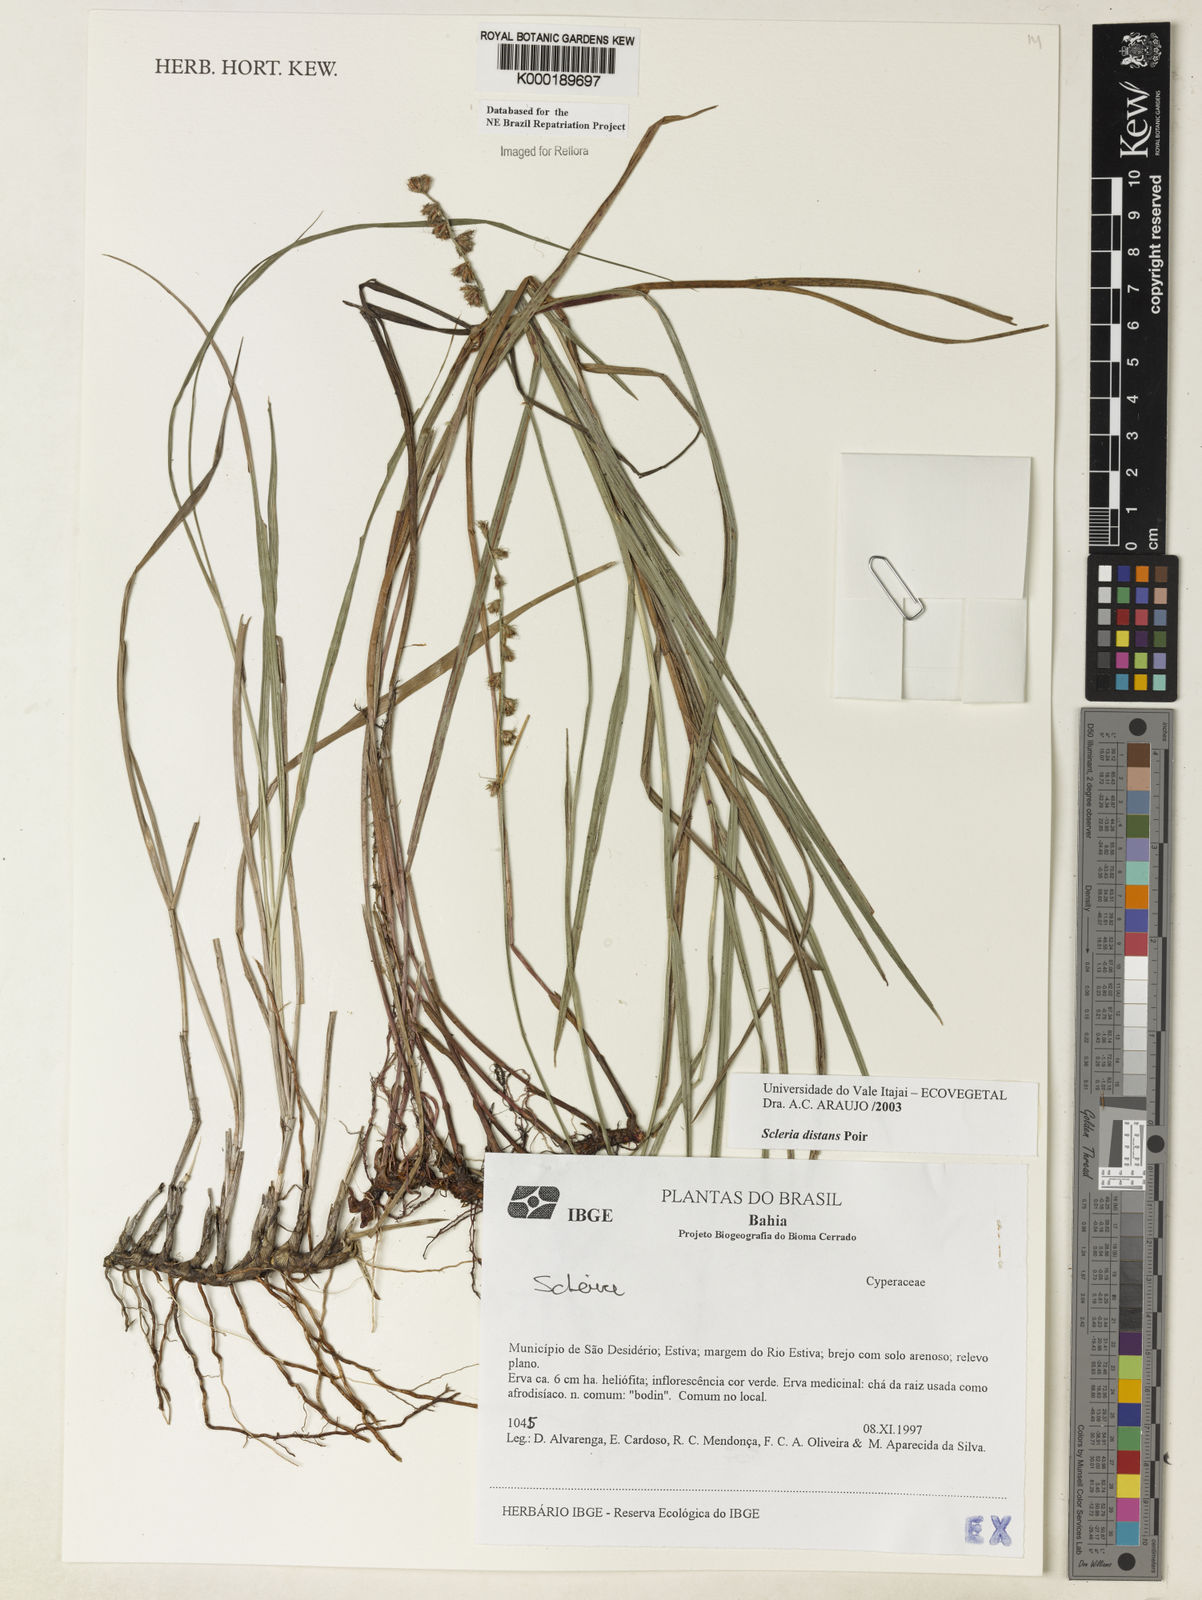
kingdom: Plantae
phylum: Tracheophyta
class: Liliopsida
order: Poales
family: Cyperaceae
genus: Scleria
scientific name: Scleria distans
